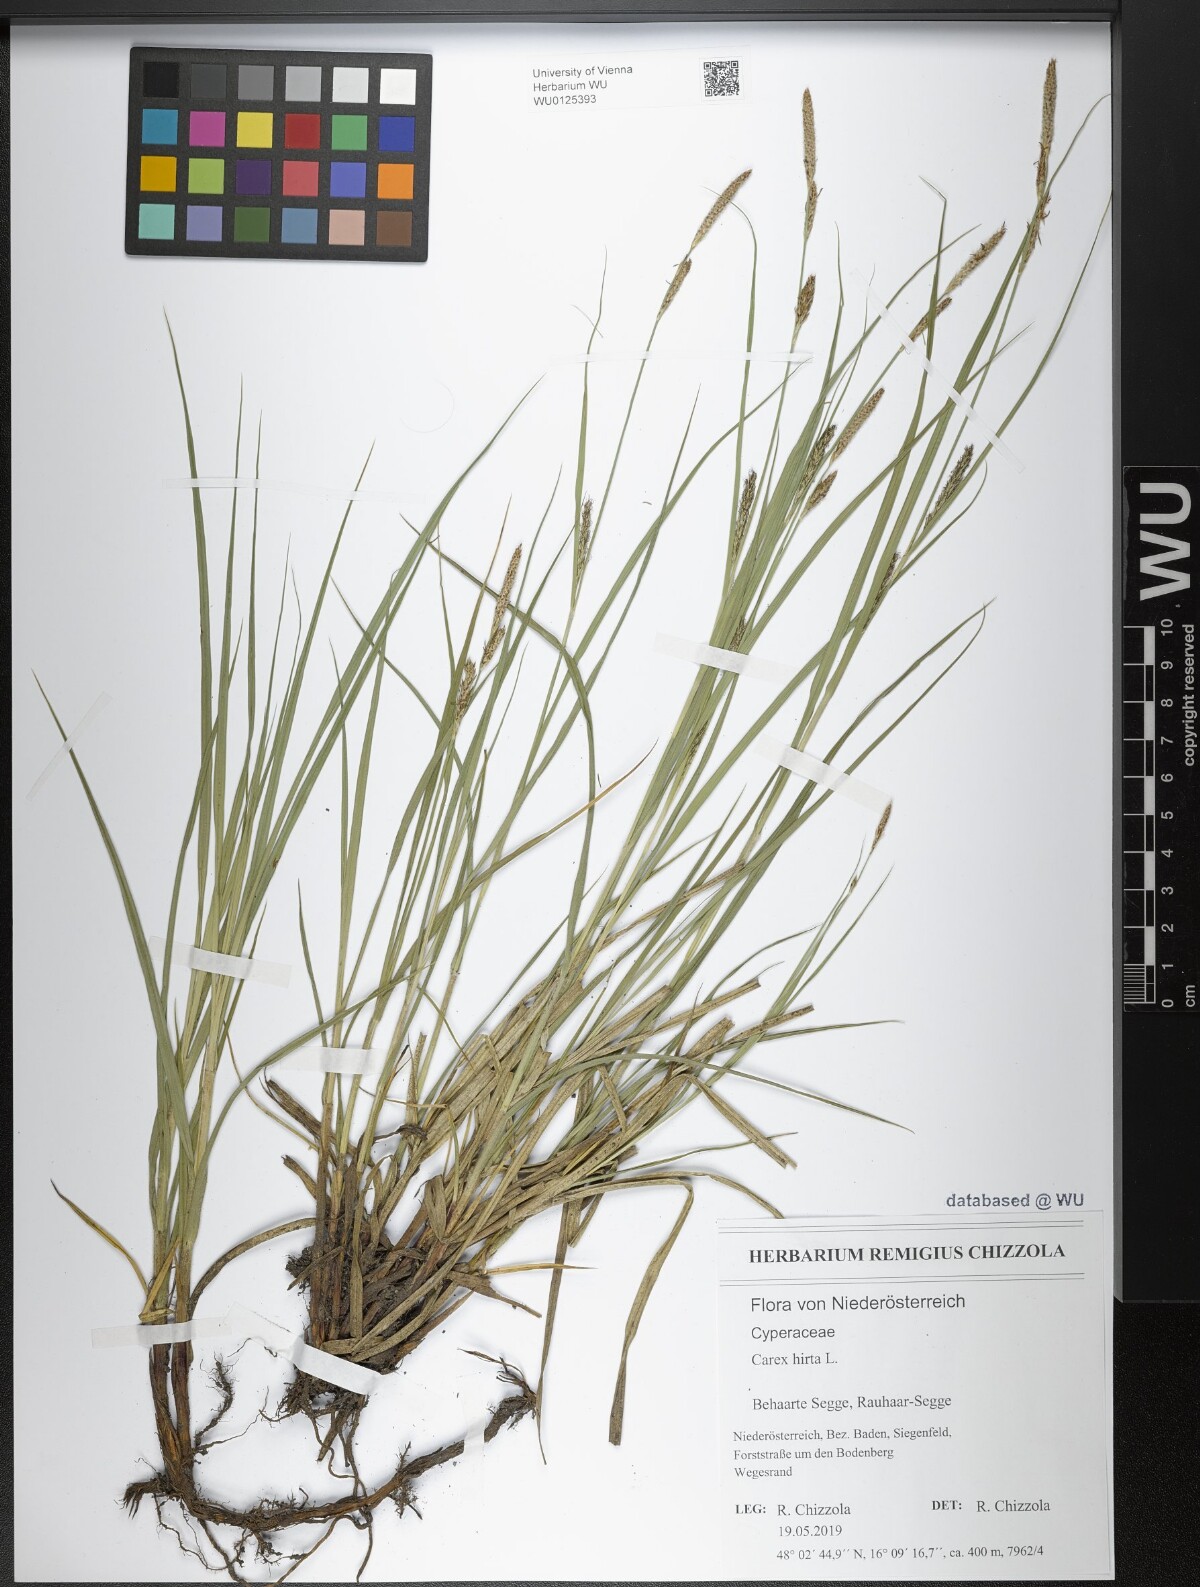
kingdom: Plantae
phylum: Tracheophyta
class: Liliopsida
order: Poales
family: Cyperaceae
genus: Carex
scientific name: Carex hirta
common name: Hairy sedge
